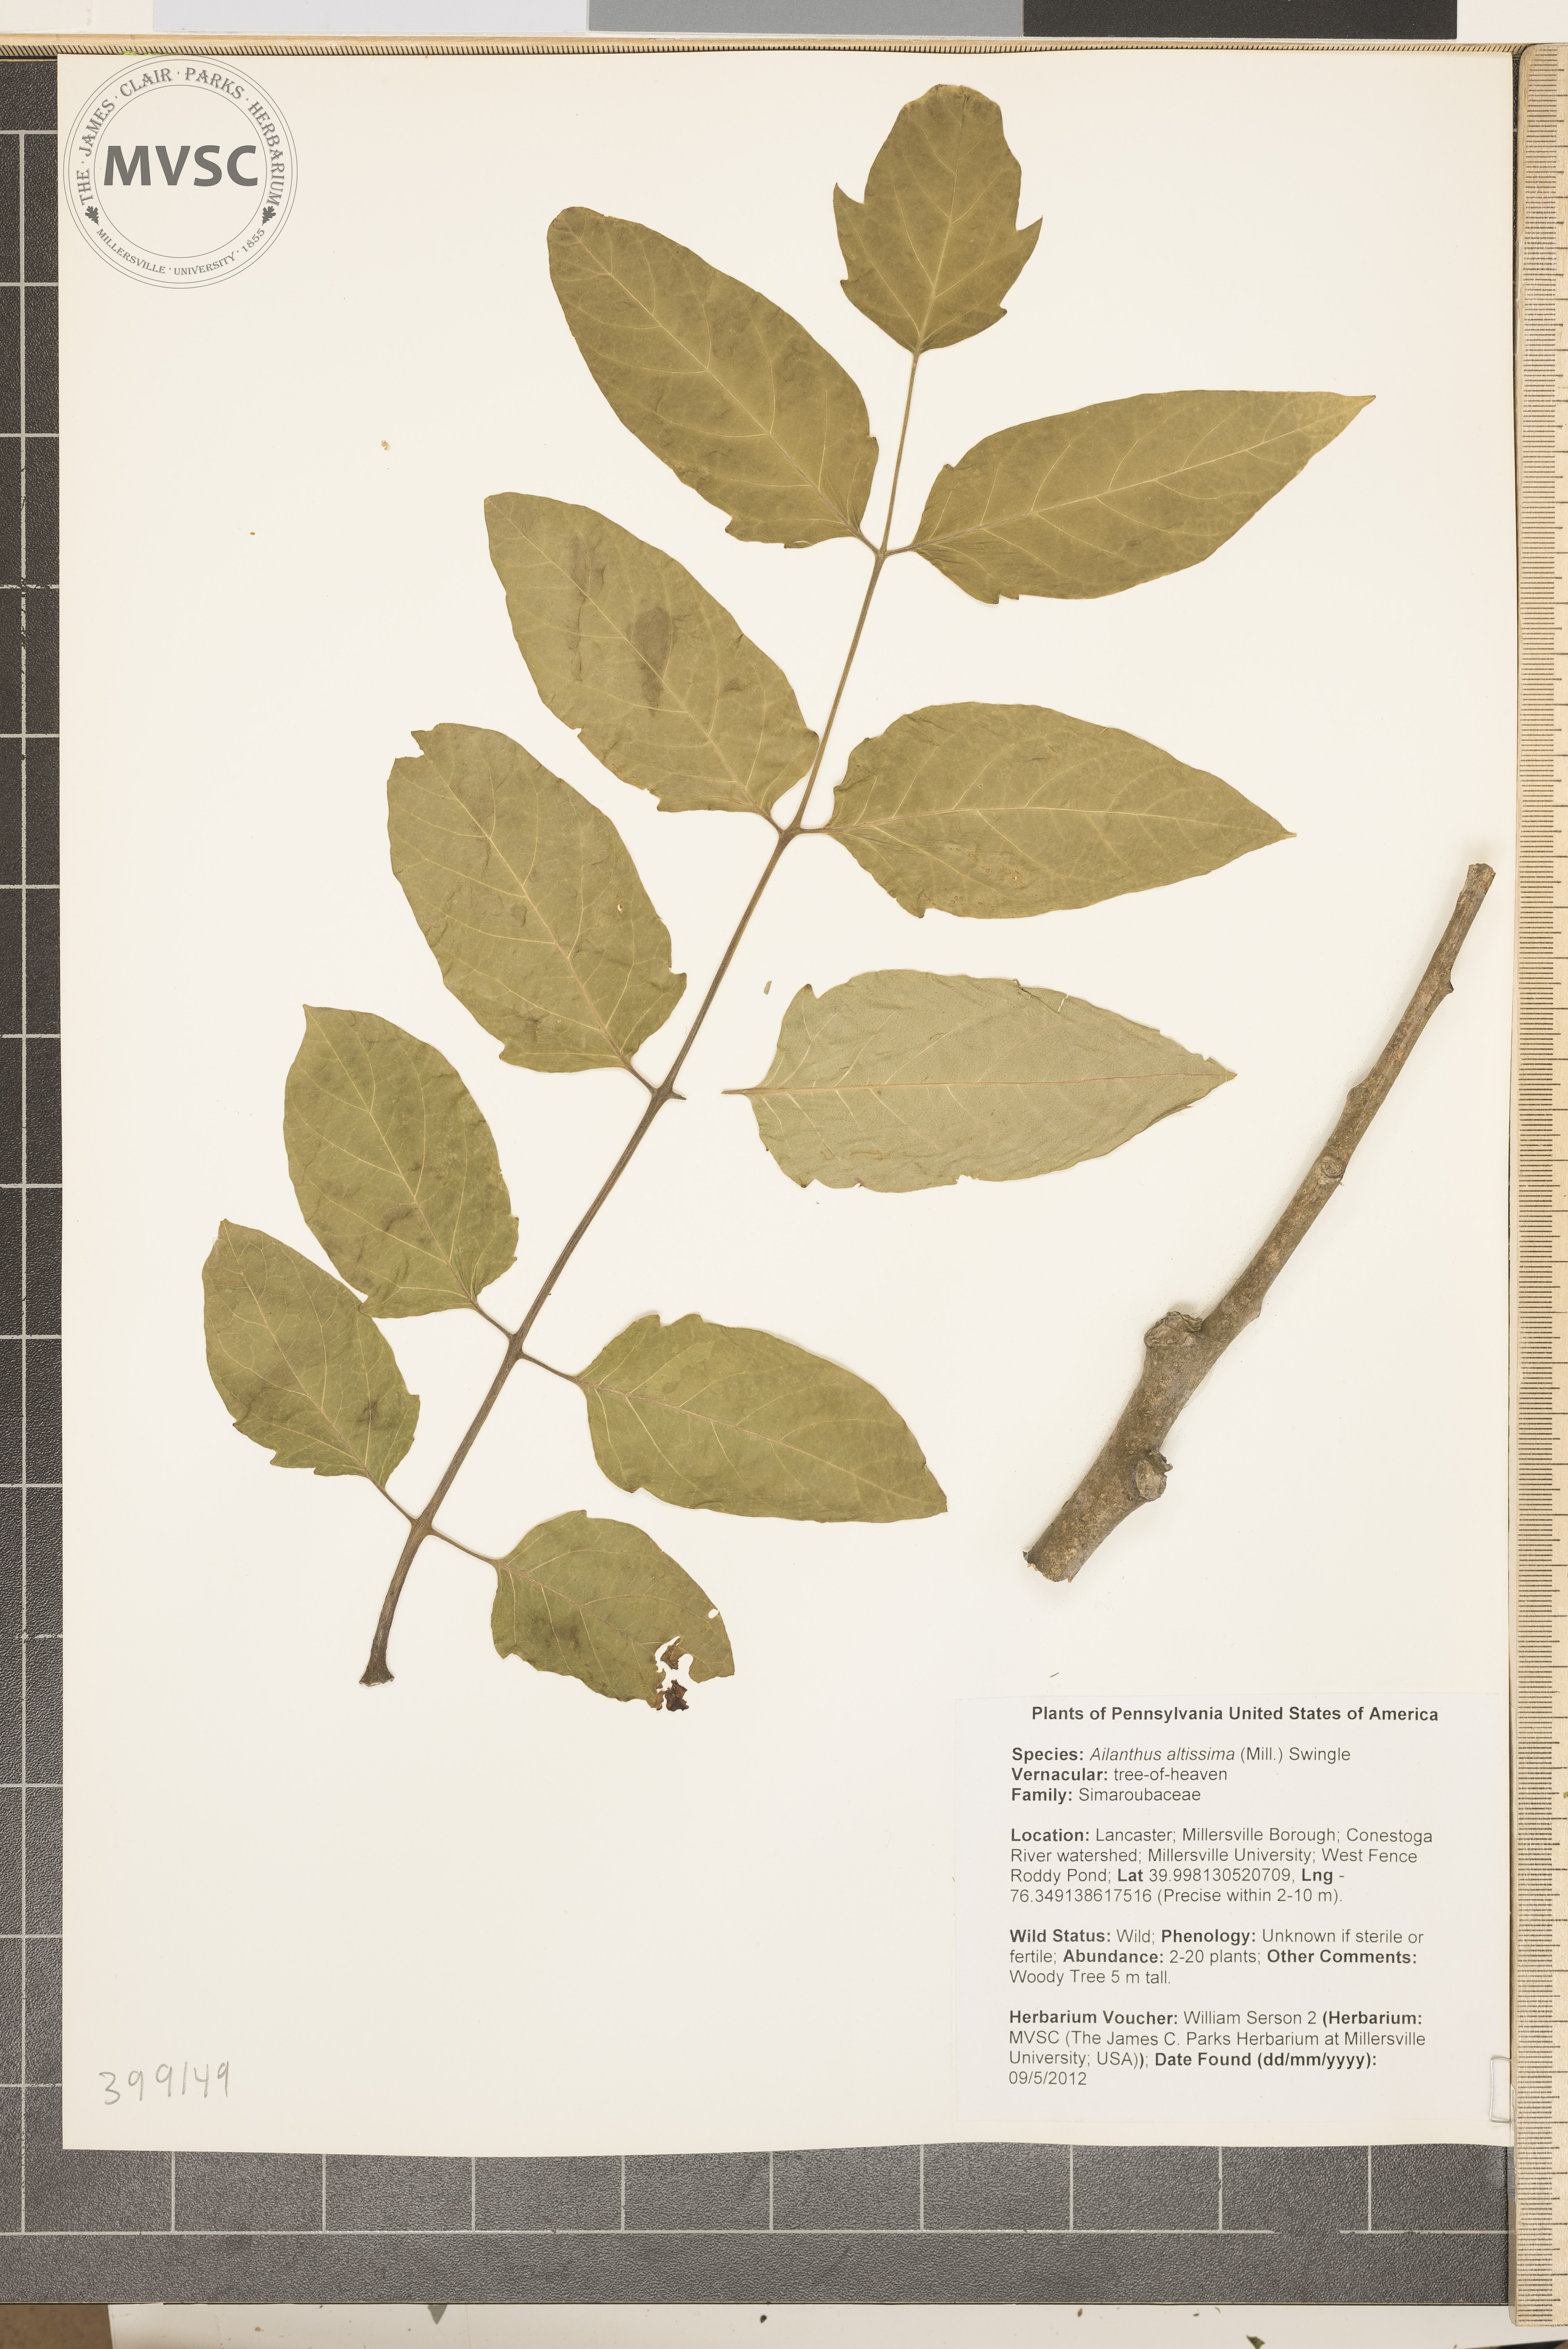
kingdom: Plantae
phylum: Tracheophyta
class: Magnoliopsida
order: Sapindales
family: Simaroubaceae
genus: Ailanthus
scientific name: Ailanthus altissima
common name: Tree-of-heaven
